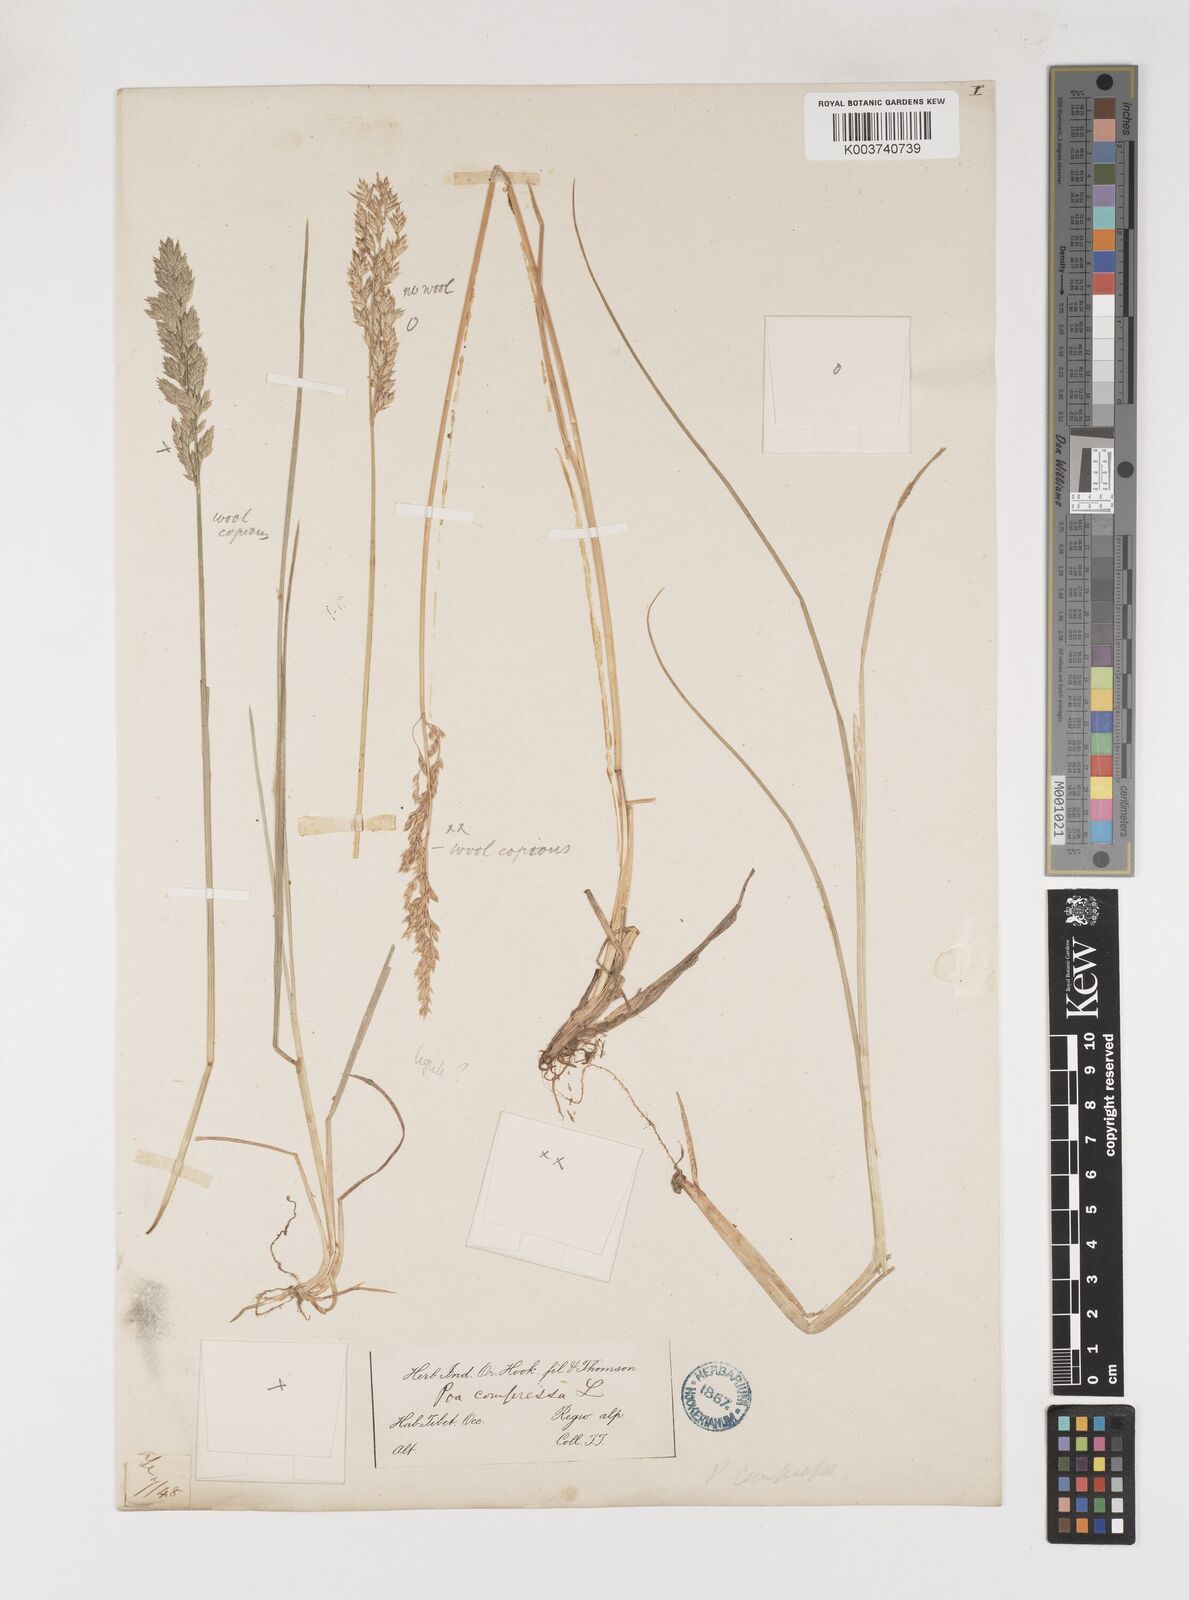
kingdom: Plantae
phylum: Tracheophyta
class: Liliopsida
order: Poales
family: Poaceae
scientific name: Poaceae
